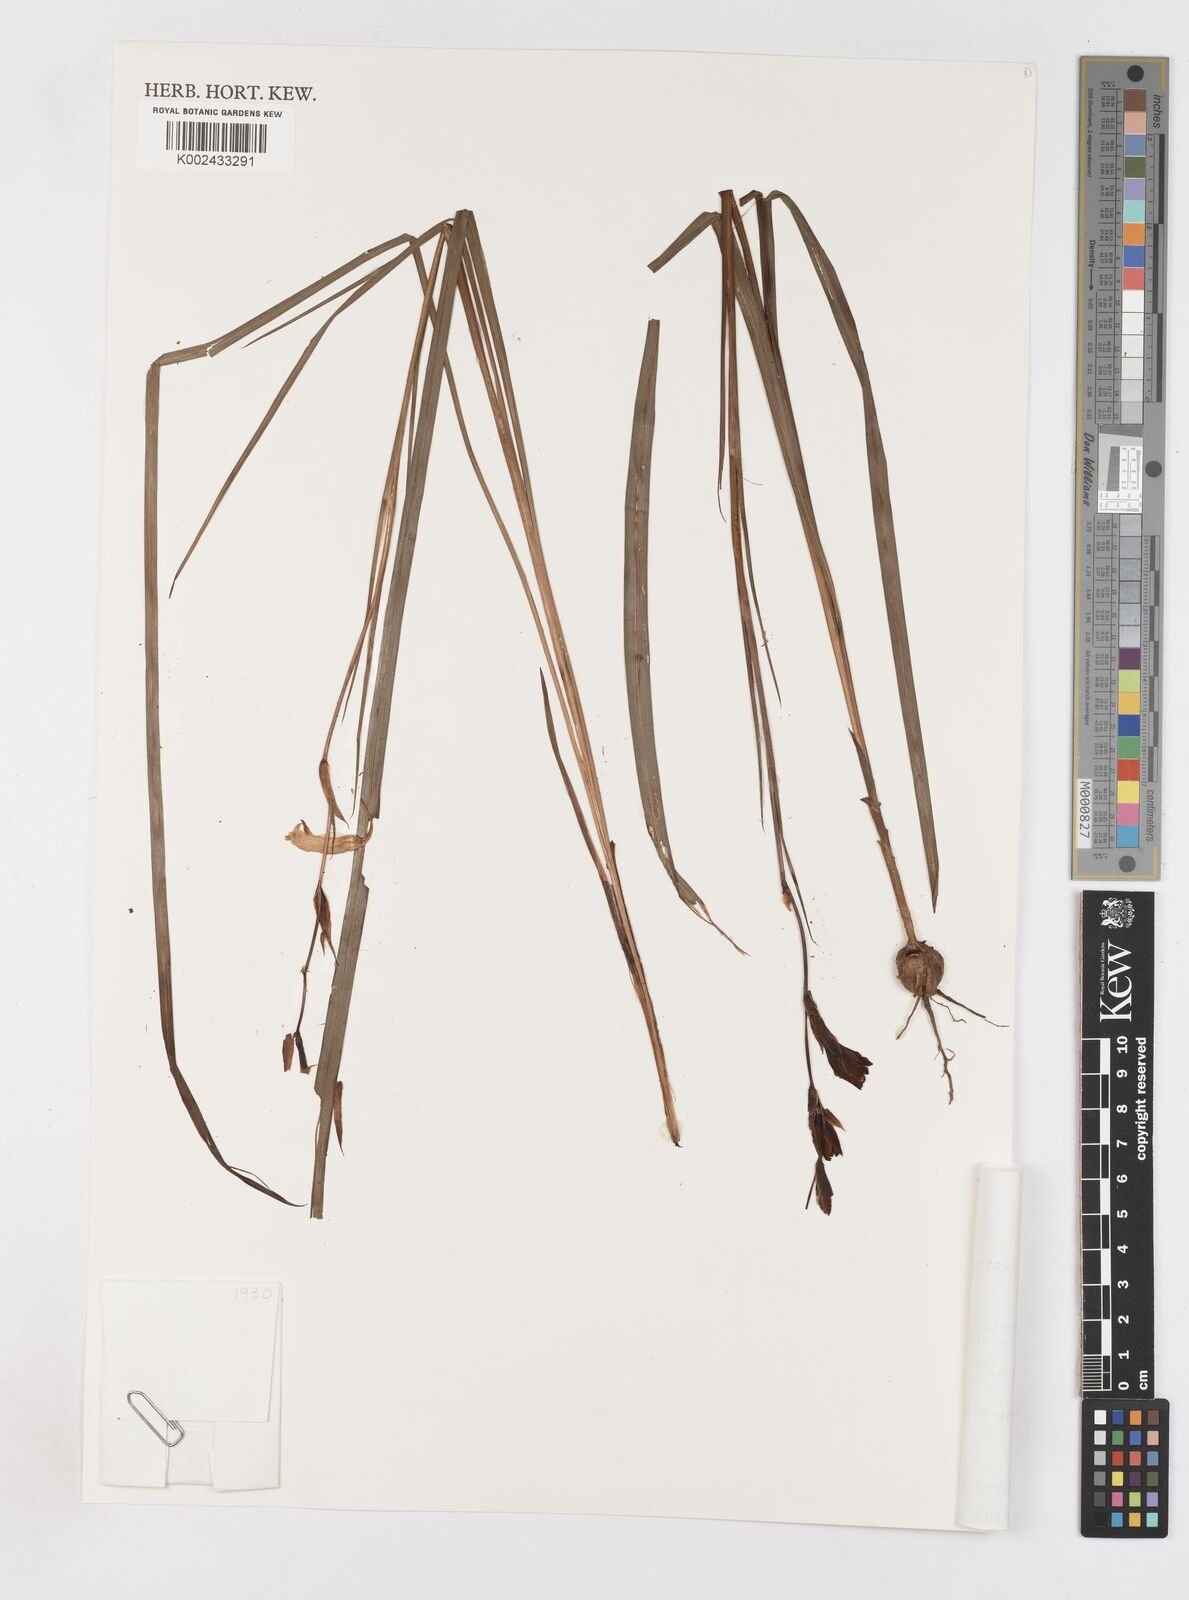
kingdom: Plantae
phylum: Tracheophyta
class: Liliopsida
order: Asparagales
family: Iridaceae
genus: Gladiolus
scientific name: Gladiolus erectiflorus
